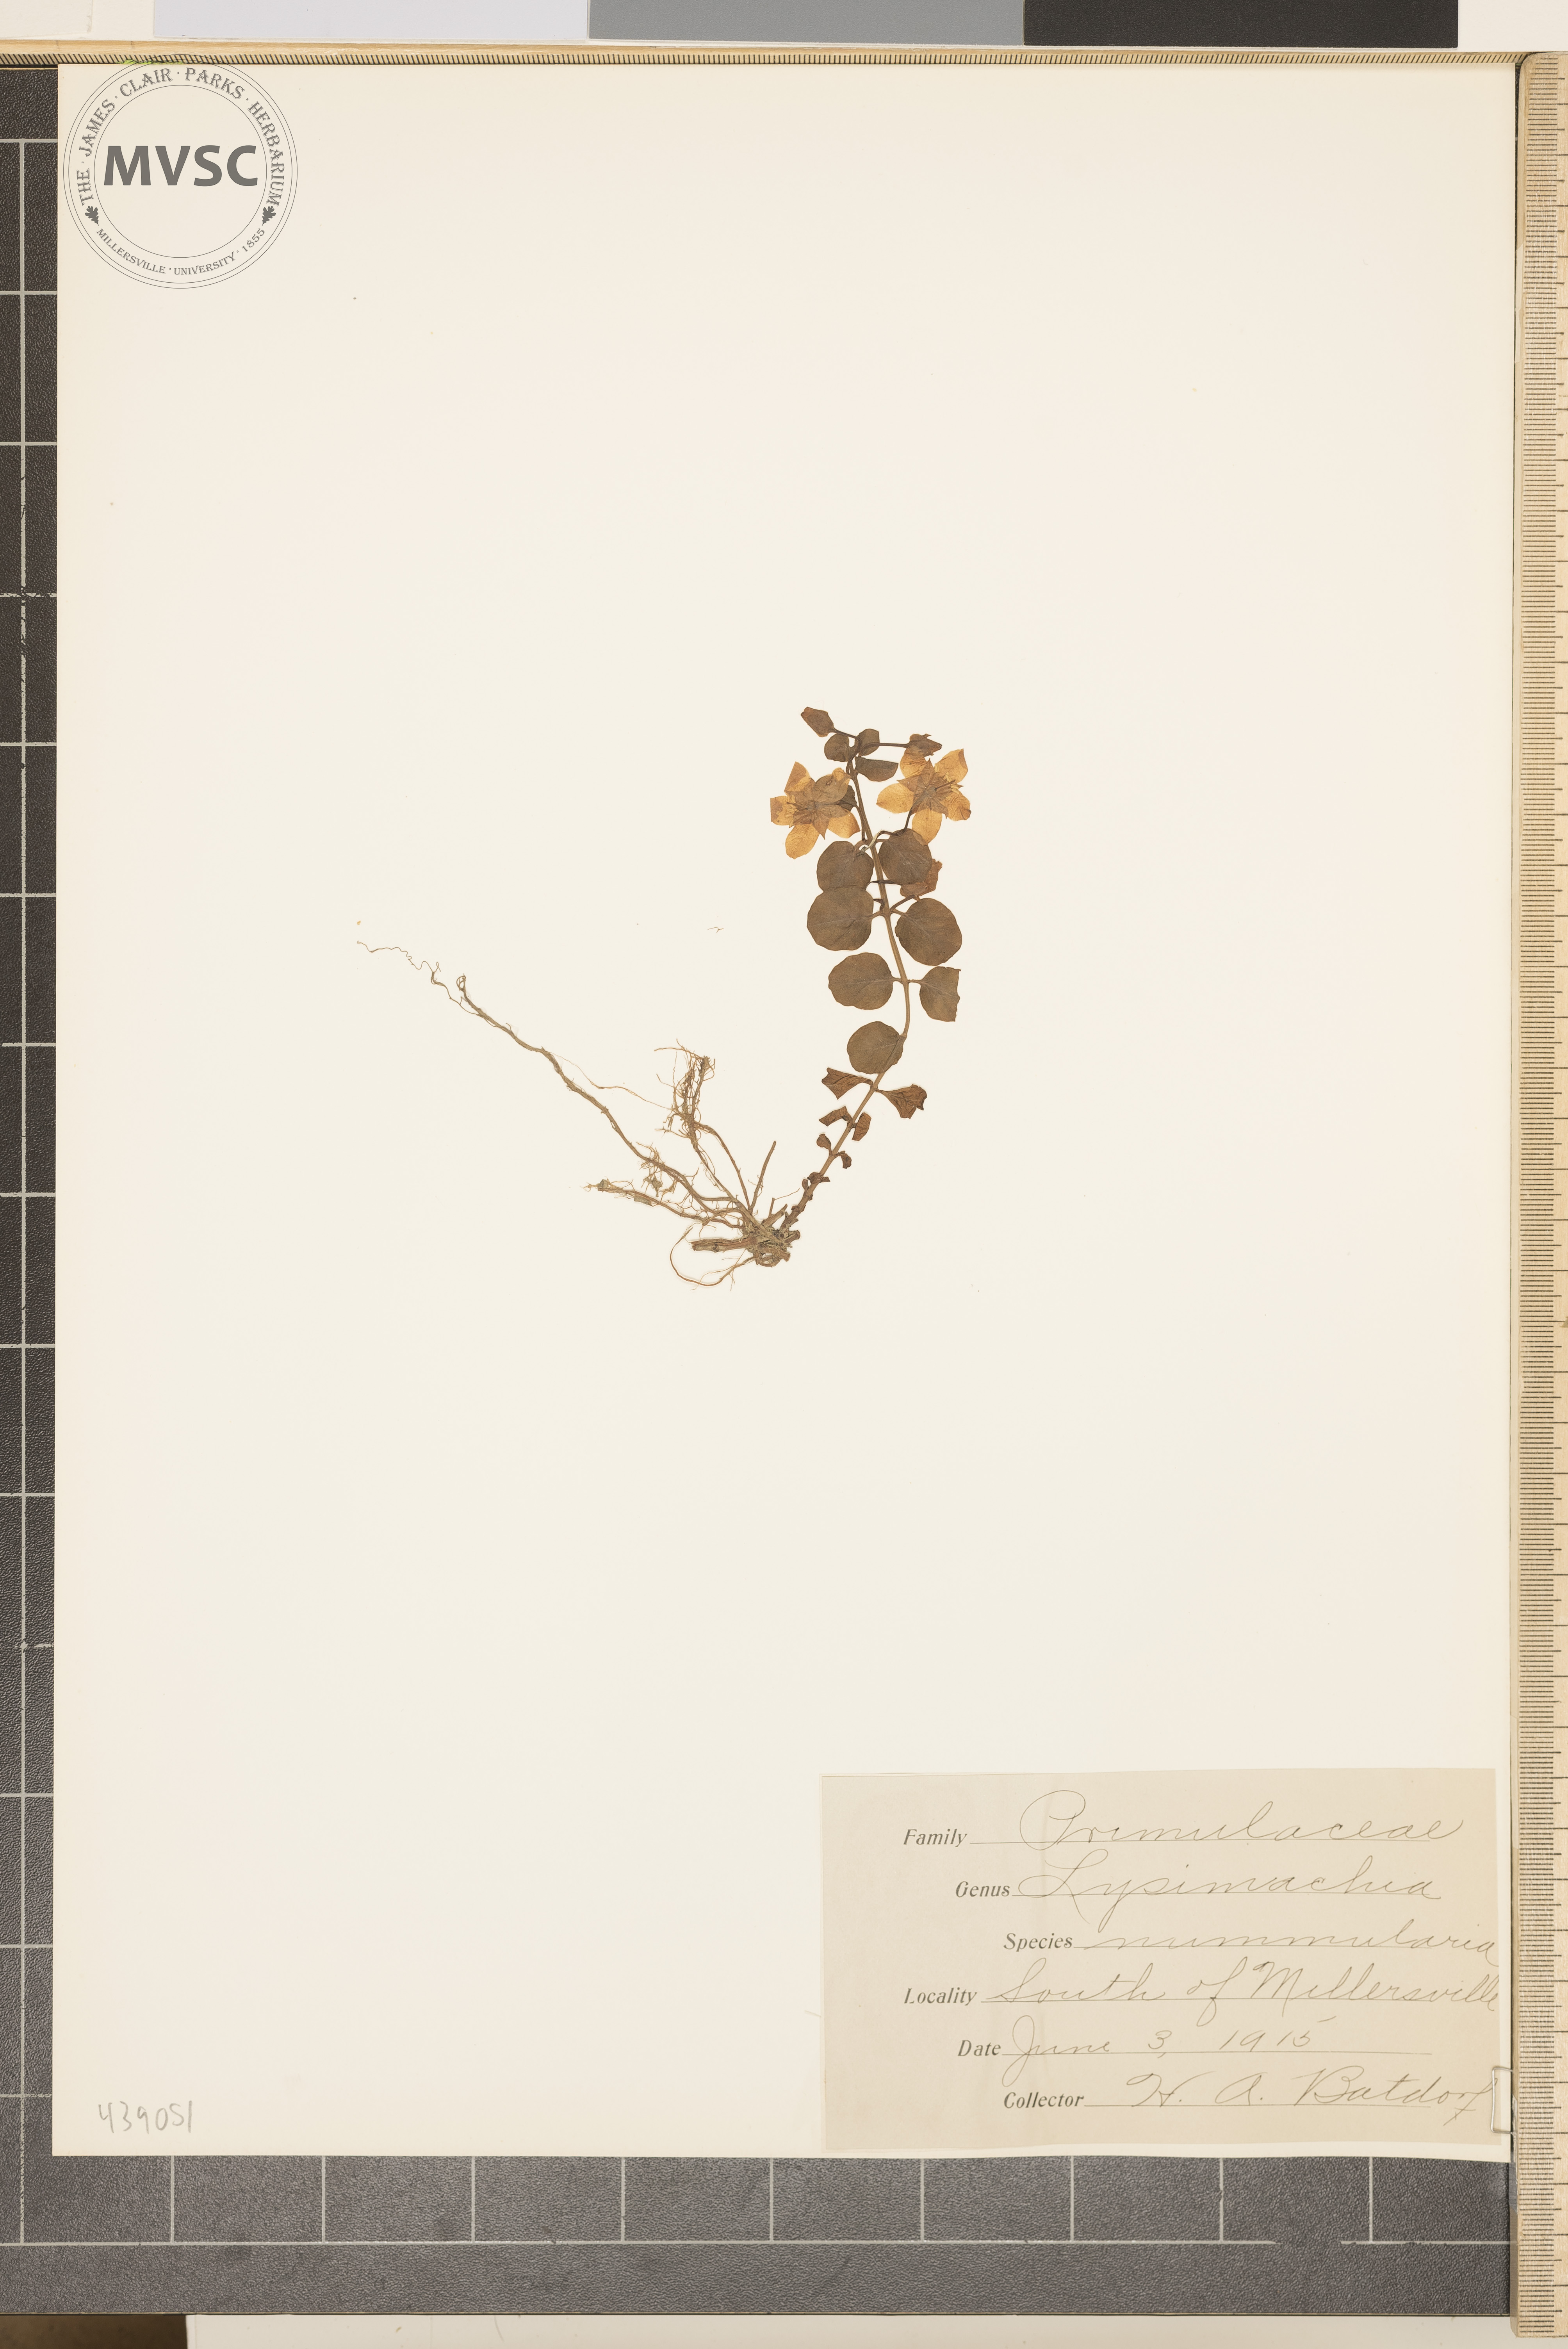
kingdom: Plantae
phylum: Tracheophyta
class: Magnoliopsida
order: Ericales
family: Primulaceae
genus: Lysimachia
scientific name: Lysimachia nummularia
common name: Moneywort
